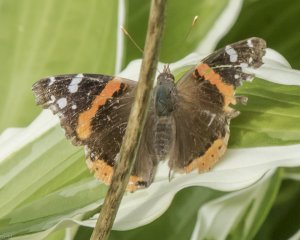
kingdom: Animalia
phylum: Arthropoda
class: Insecta
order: Lepidoptera
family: Nymphalidae
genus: Vanessa
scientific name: Vanessa atalanta
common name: Red Admiral
